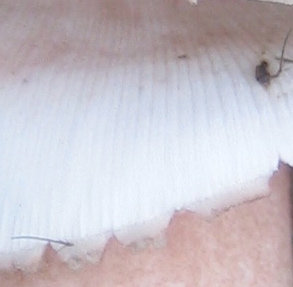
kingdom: Fungi
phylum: Basidiomycota
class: Agaricomycetes
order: Agaricales
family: Amanitaceae
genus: Amanita
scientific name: Amanita rubescens
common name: rødmende fluesvamp
